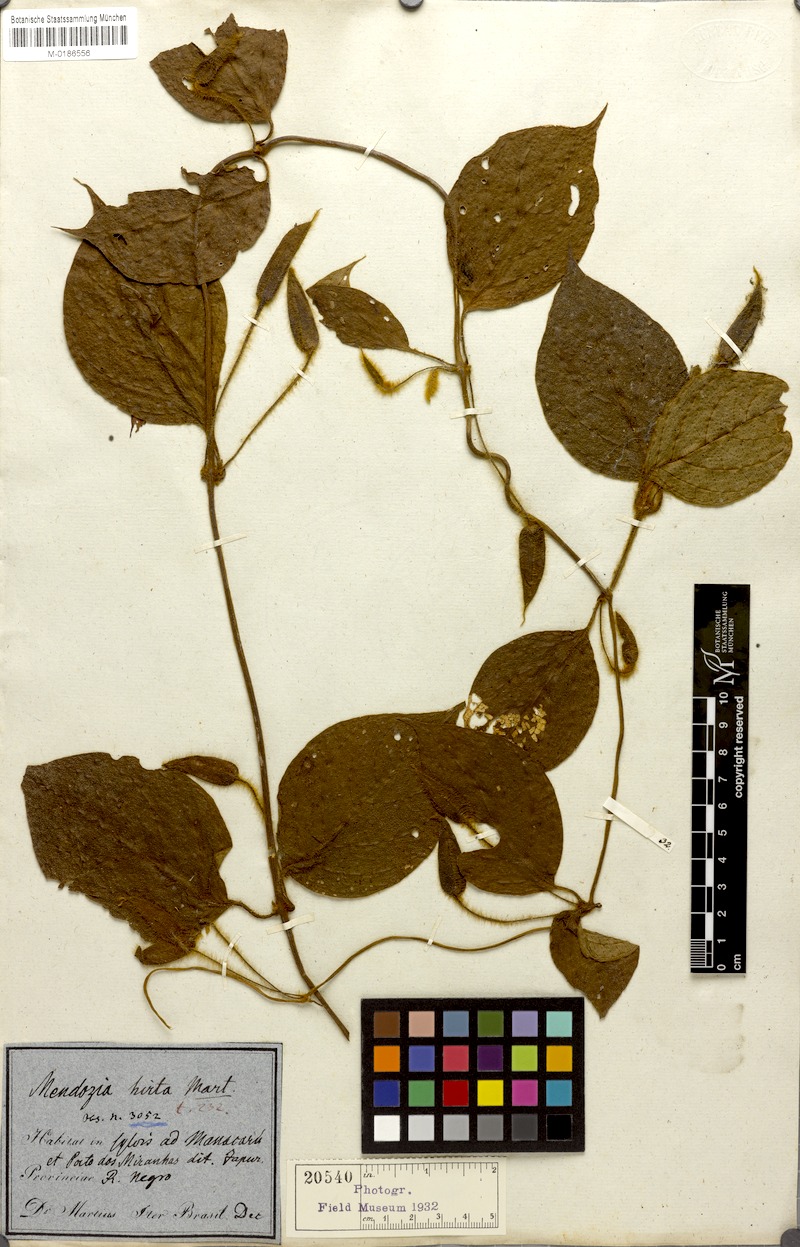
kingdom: Plantae
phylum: Tracheophyta
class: Magnoliopsida
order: Lamiales
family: Acanthaceae
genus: Mendoncia
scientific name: Mendoncia pilosa
